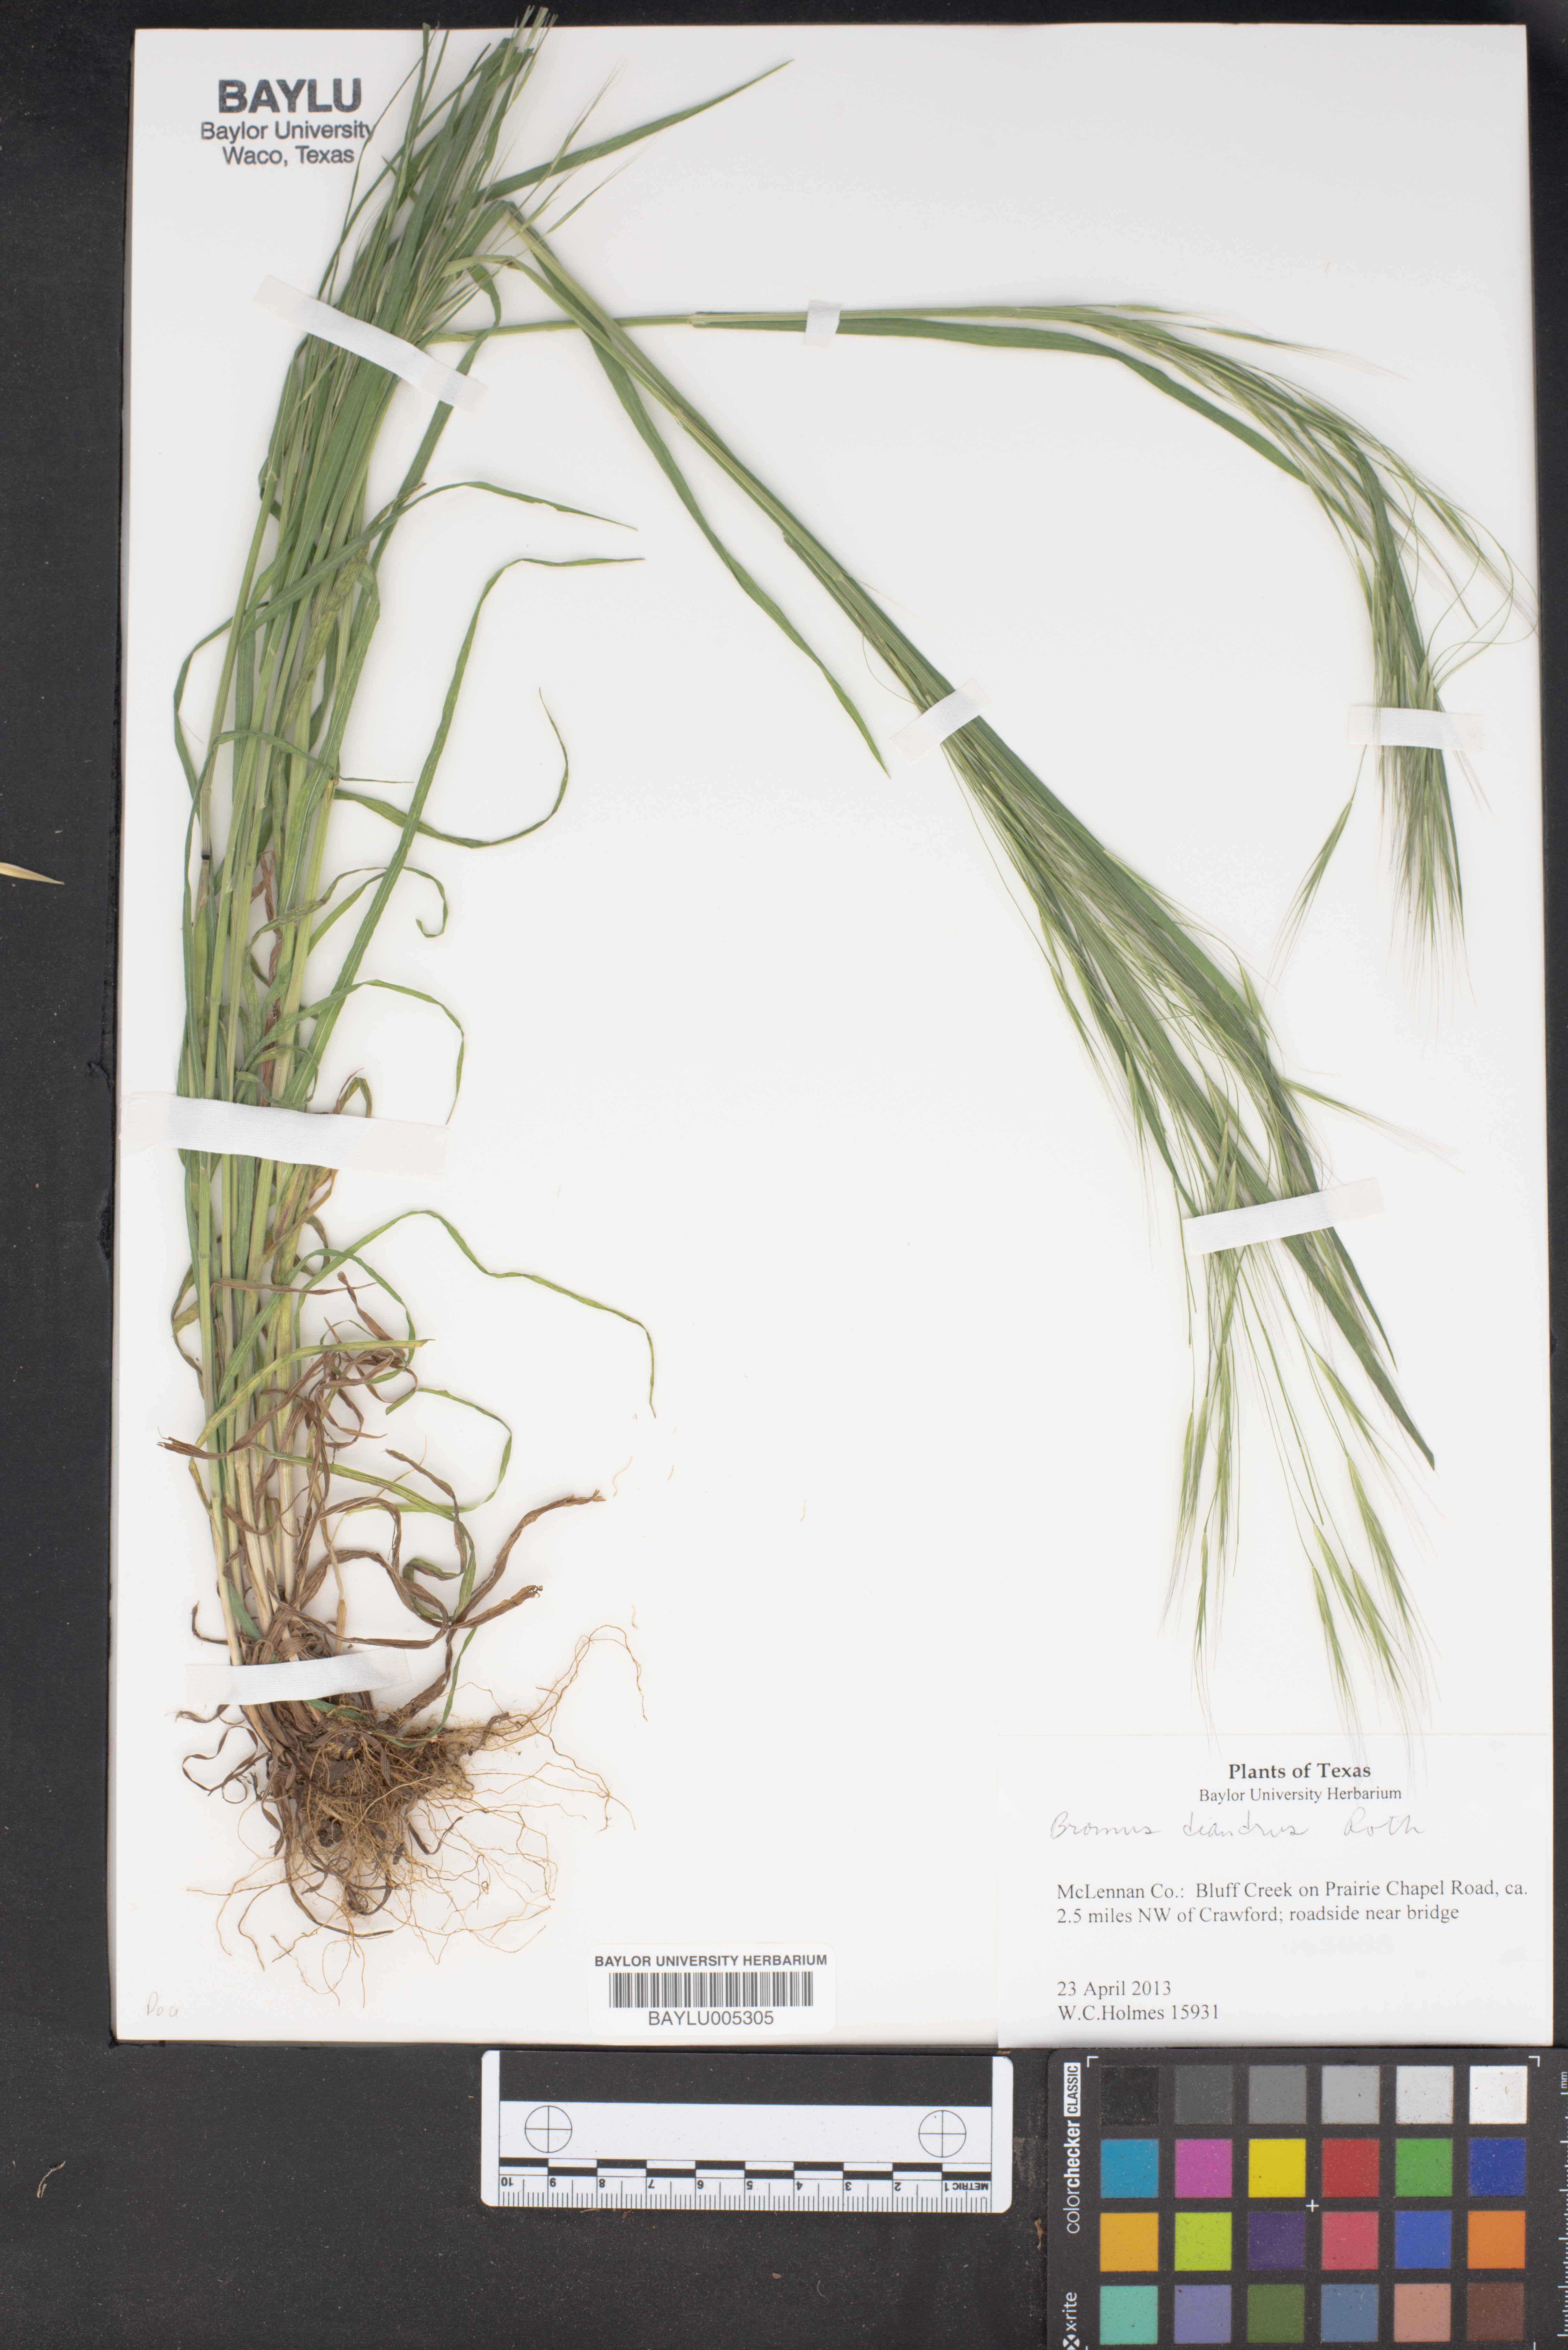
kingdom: Plantae
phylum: Tracheophyta
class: Liliopsida
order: Poales
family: Poaceae
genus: Bromus
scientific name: Bromus diandrus
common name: Ripgut brome
